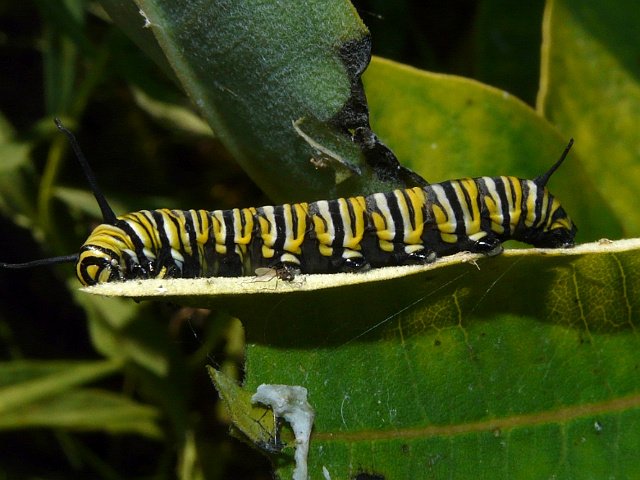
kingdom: Animalia
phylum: Arthropoda
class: Insecta
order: Lepidoptera
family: Nymphalidae
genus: Danaus
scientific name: Danaus plexippus
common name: Monarch
